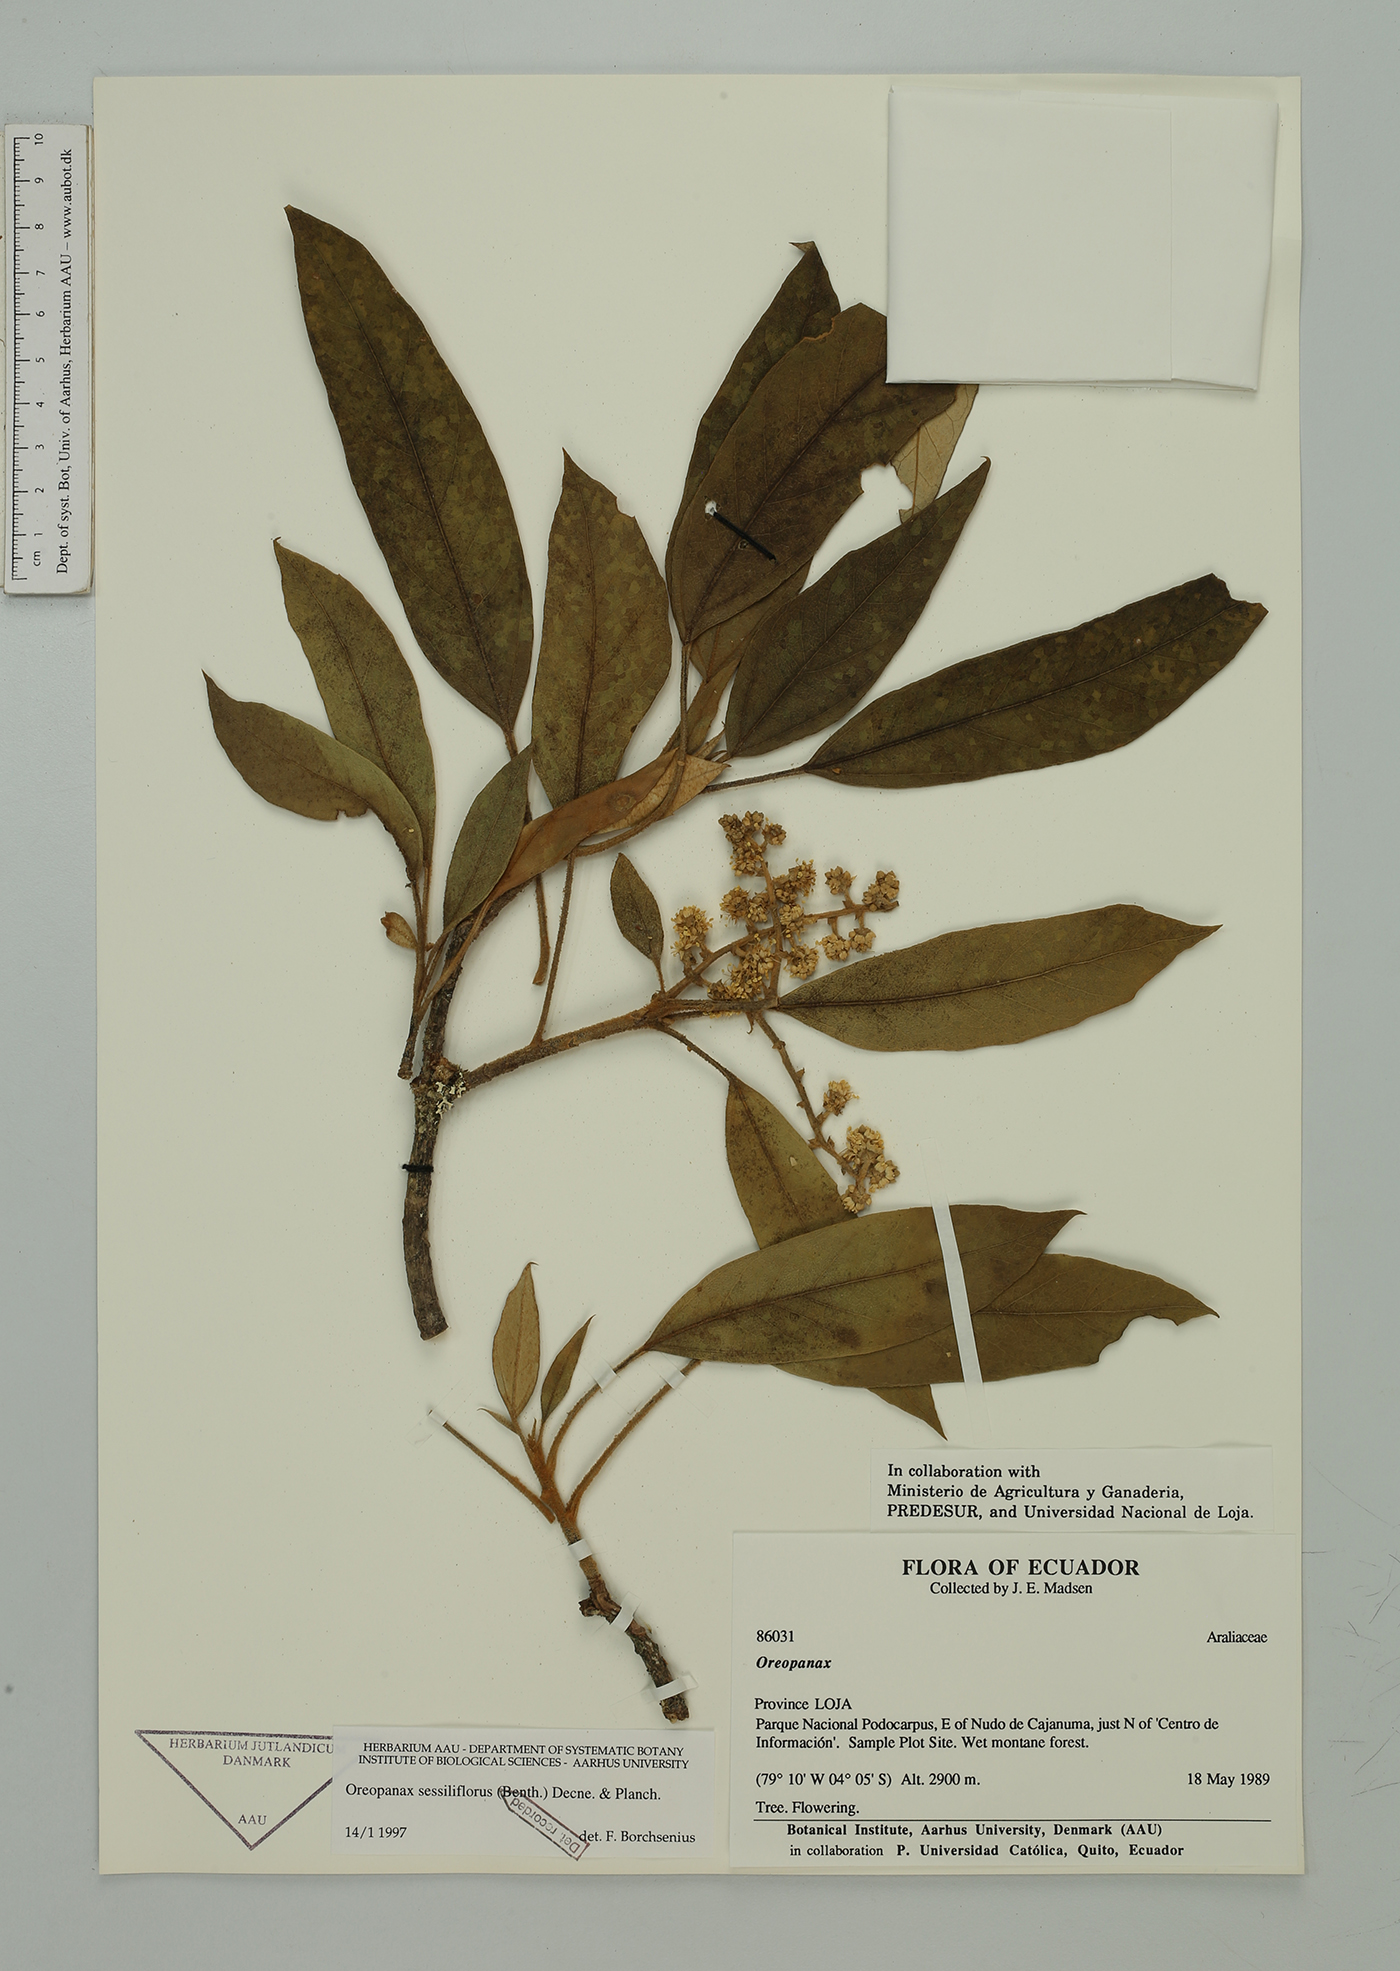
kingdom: Plantae
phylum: Tracheophyta
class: Magnoliopsida
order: Apiales
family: Araliaceae
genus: Oreopanax
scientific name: Oreopanax sessiliflorus
